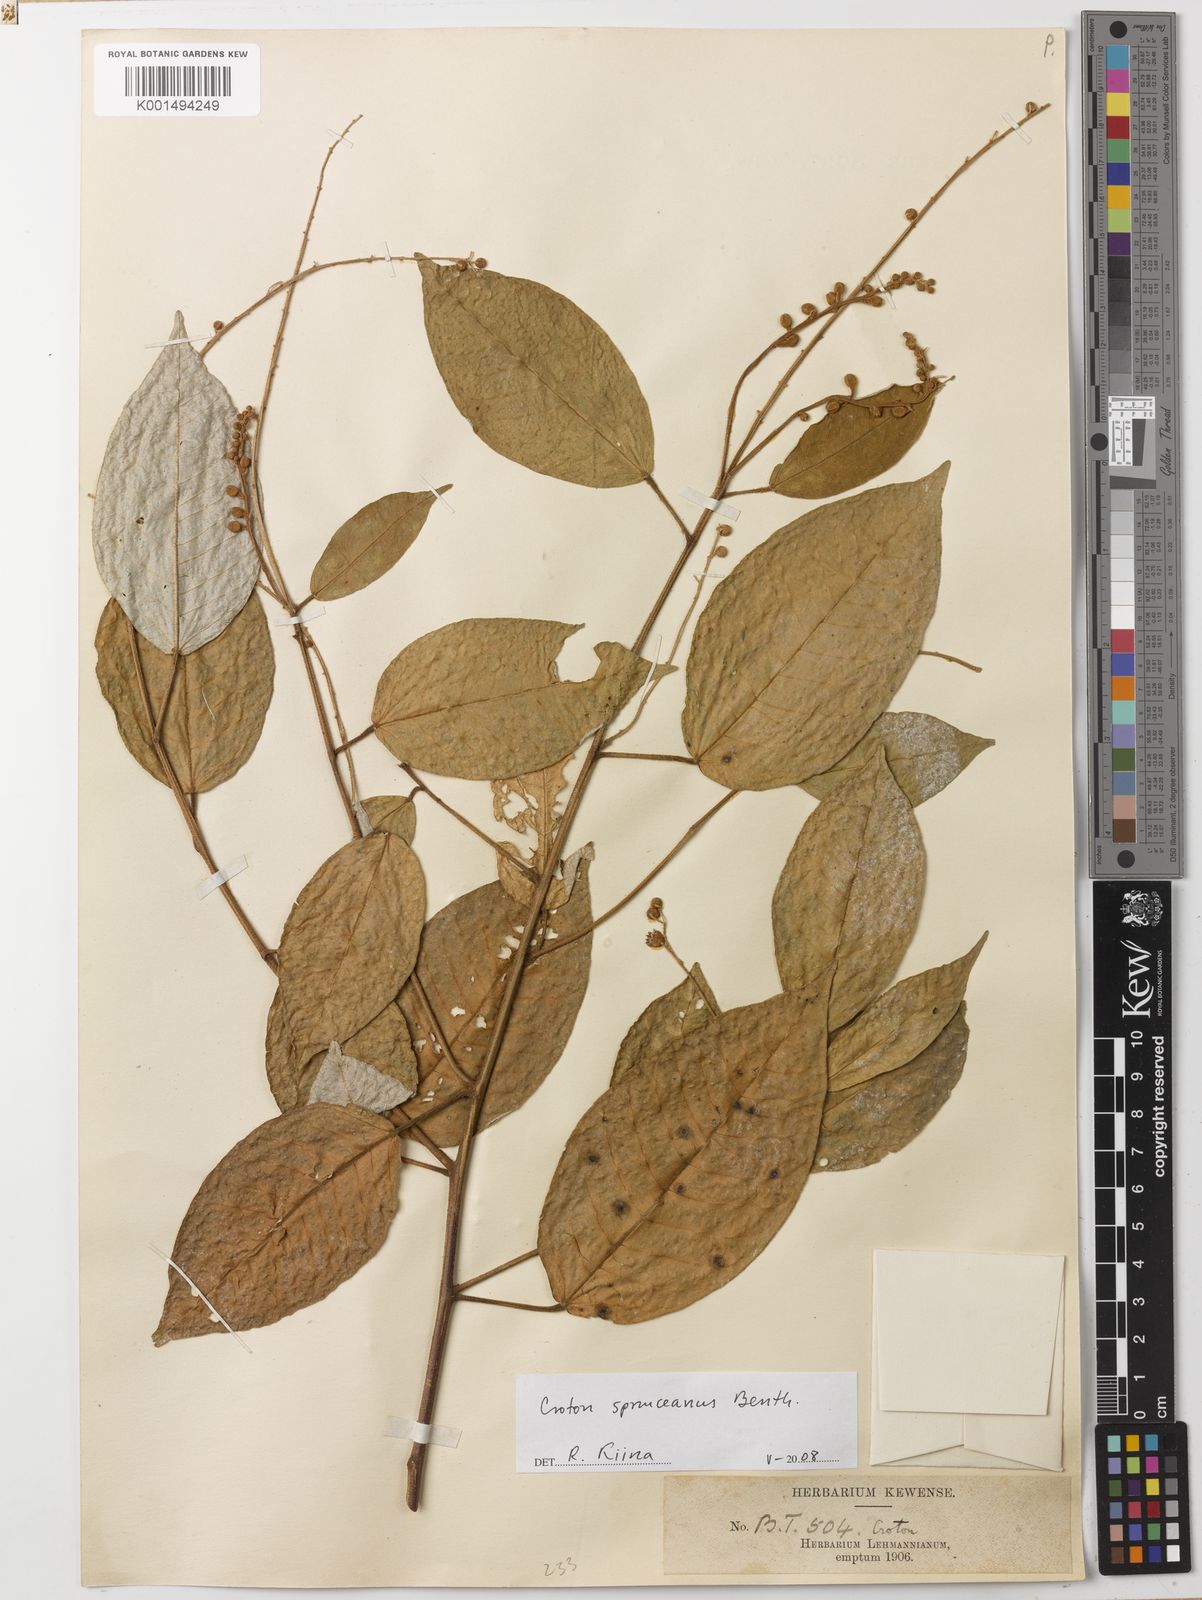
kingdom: Plantae
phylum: Tracheophyta
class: Magnoliopsida
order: Malpighiales
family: Euphorbiaceae
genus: Croton
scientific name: Croton spruceanus
